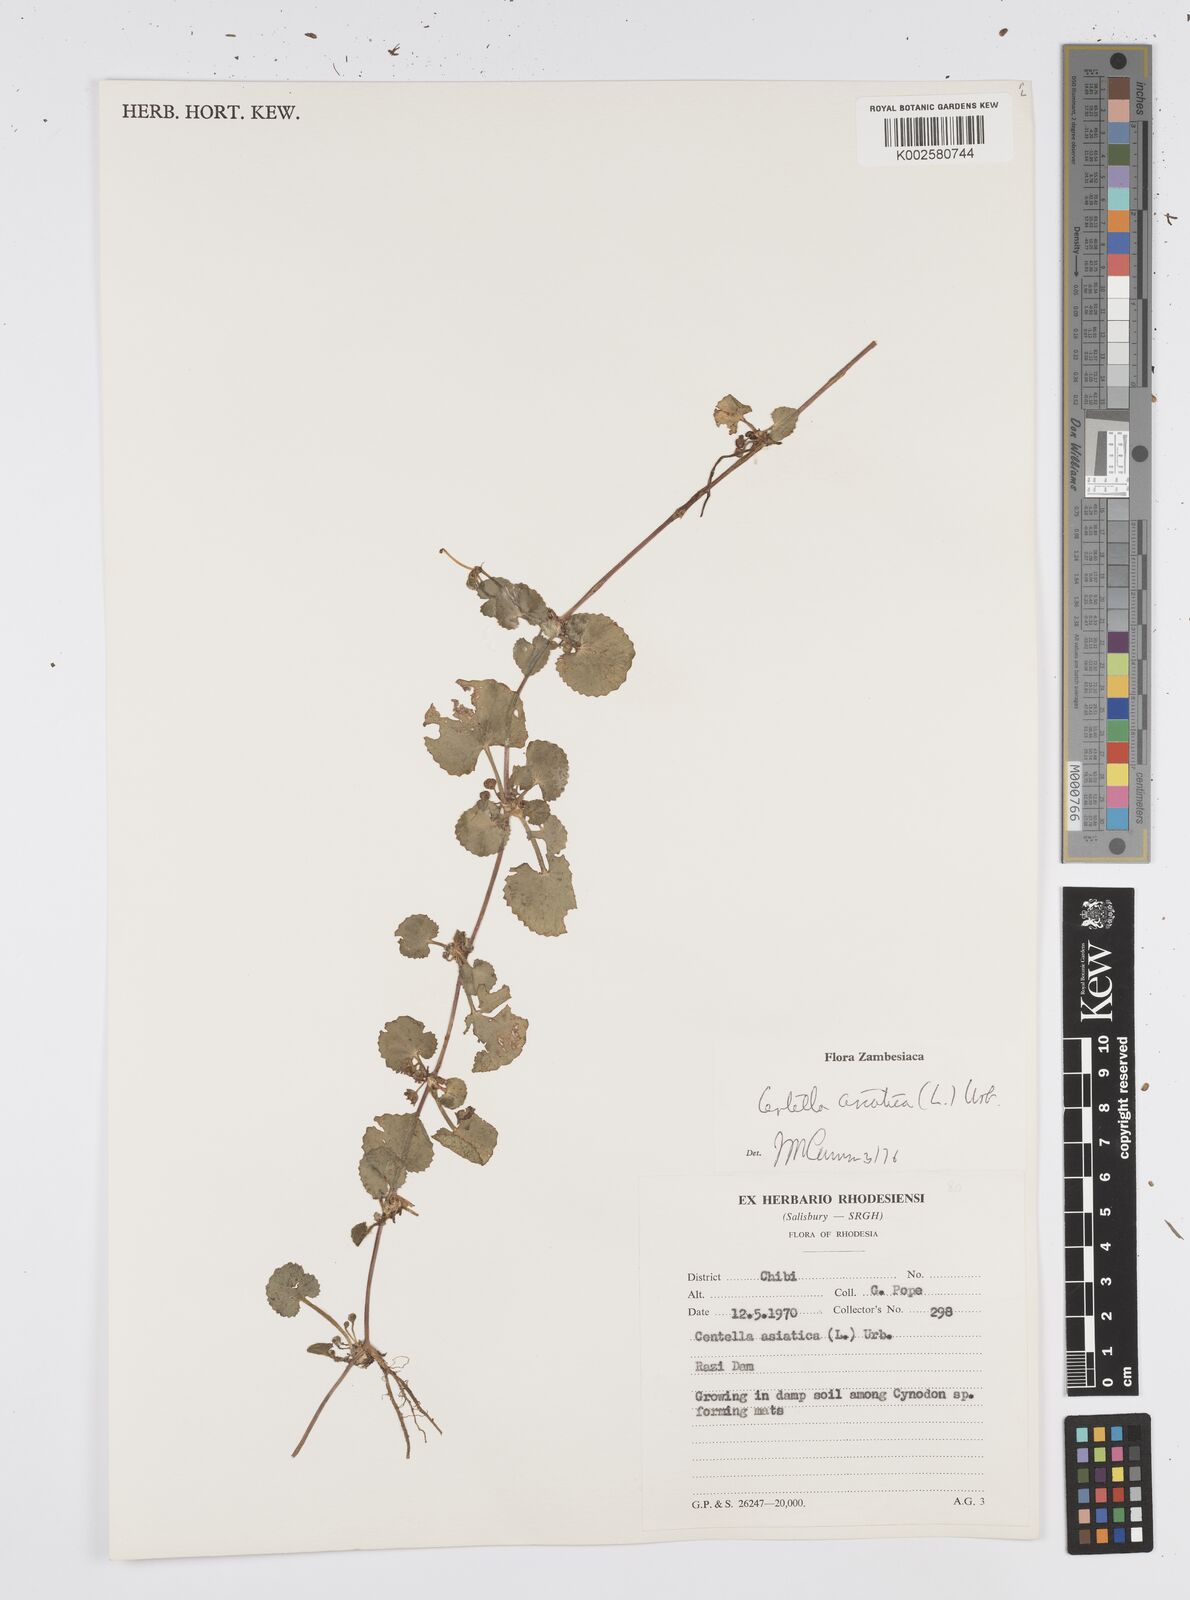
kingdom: Plantae
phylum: Tracheophyta
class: Magnoliopsida
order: Apiales
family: Apiaceae
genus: Centella
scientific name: Centella asiatica
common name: Spadeleaf
